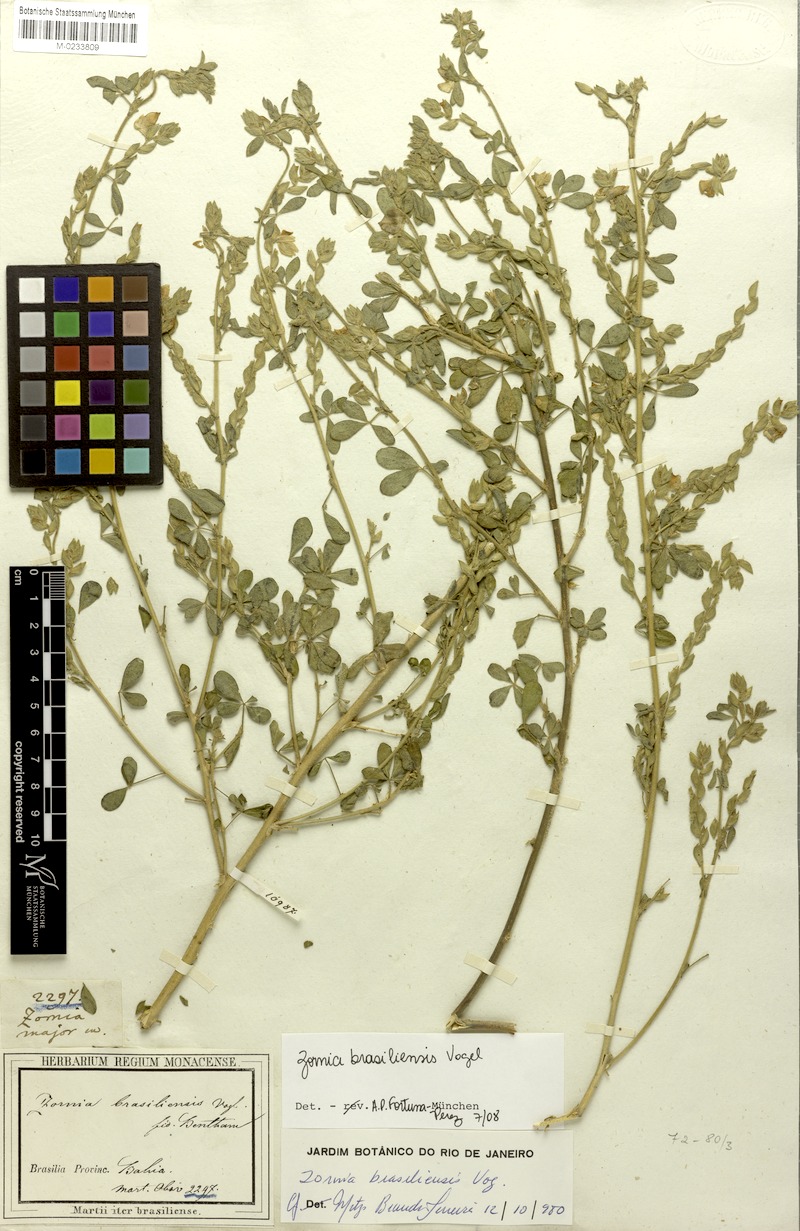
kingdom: Plantae
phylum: Tracheophyta
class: Magnoliopsida
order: Fabales
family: Fabaceae
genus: Zornia
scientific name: Zornia brasiliensis
